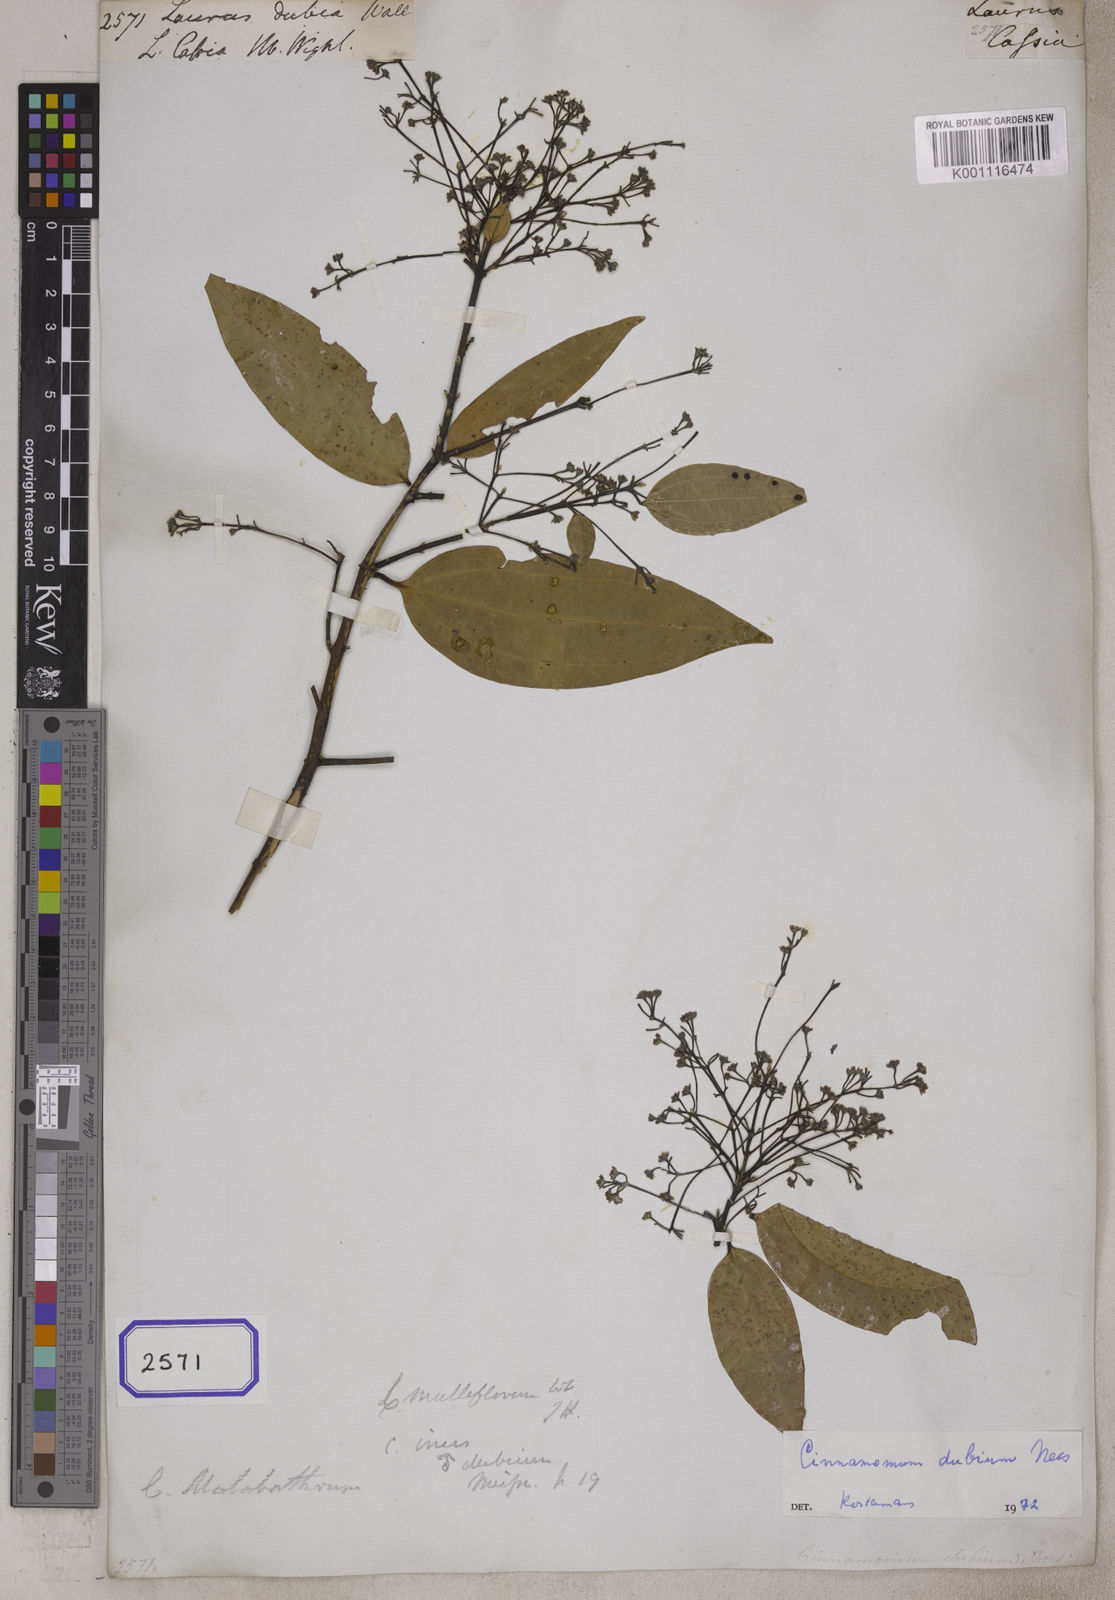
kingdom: Plantae
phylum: Tracheophyta
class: Magnoliopsida
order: Laurales
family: Lauraceae
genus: Cinnamomum
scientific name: Cinnamomum dubium
